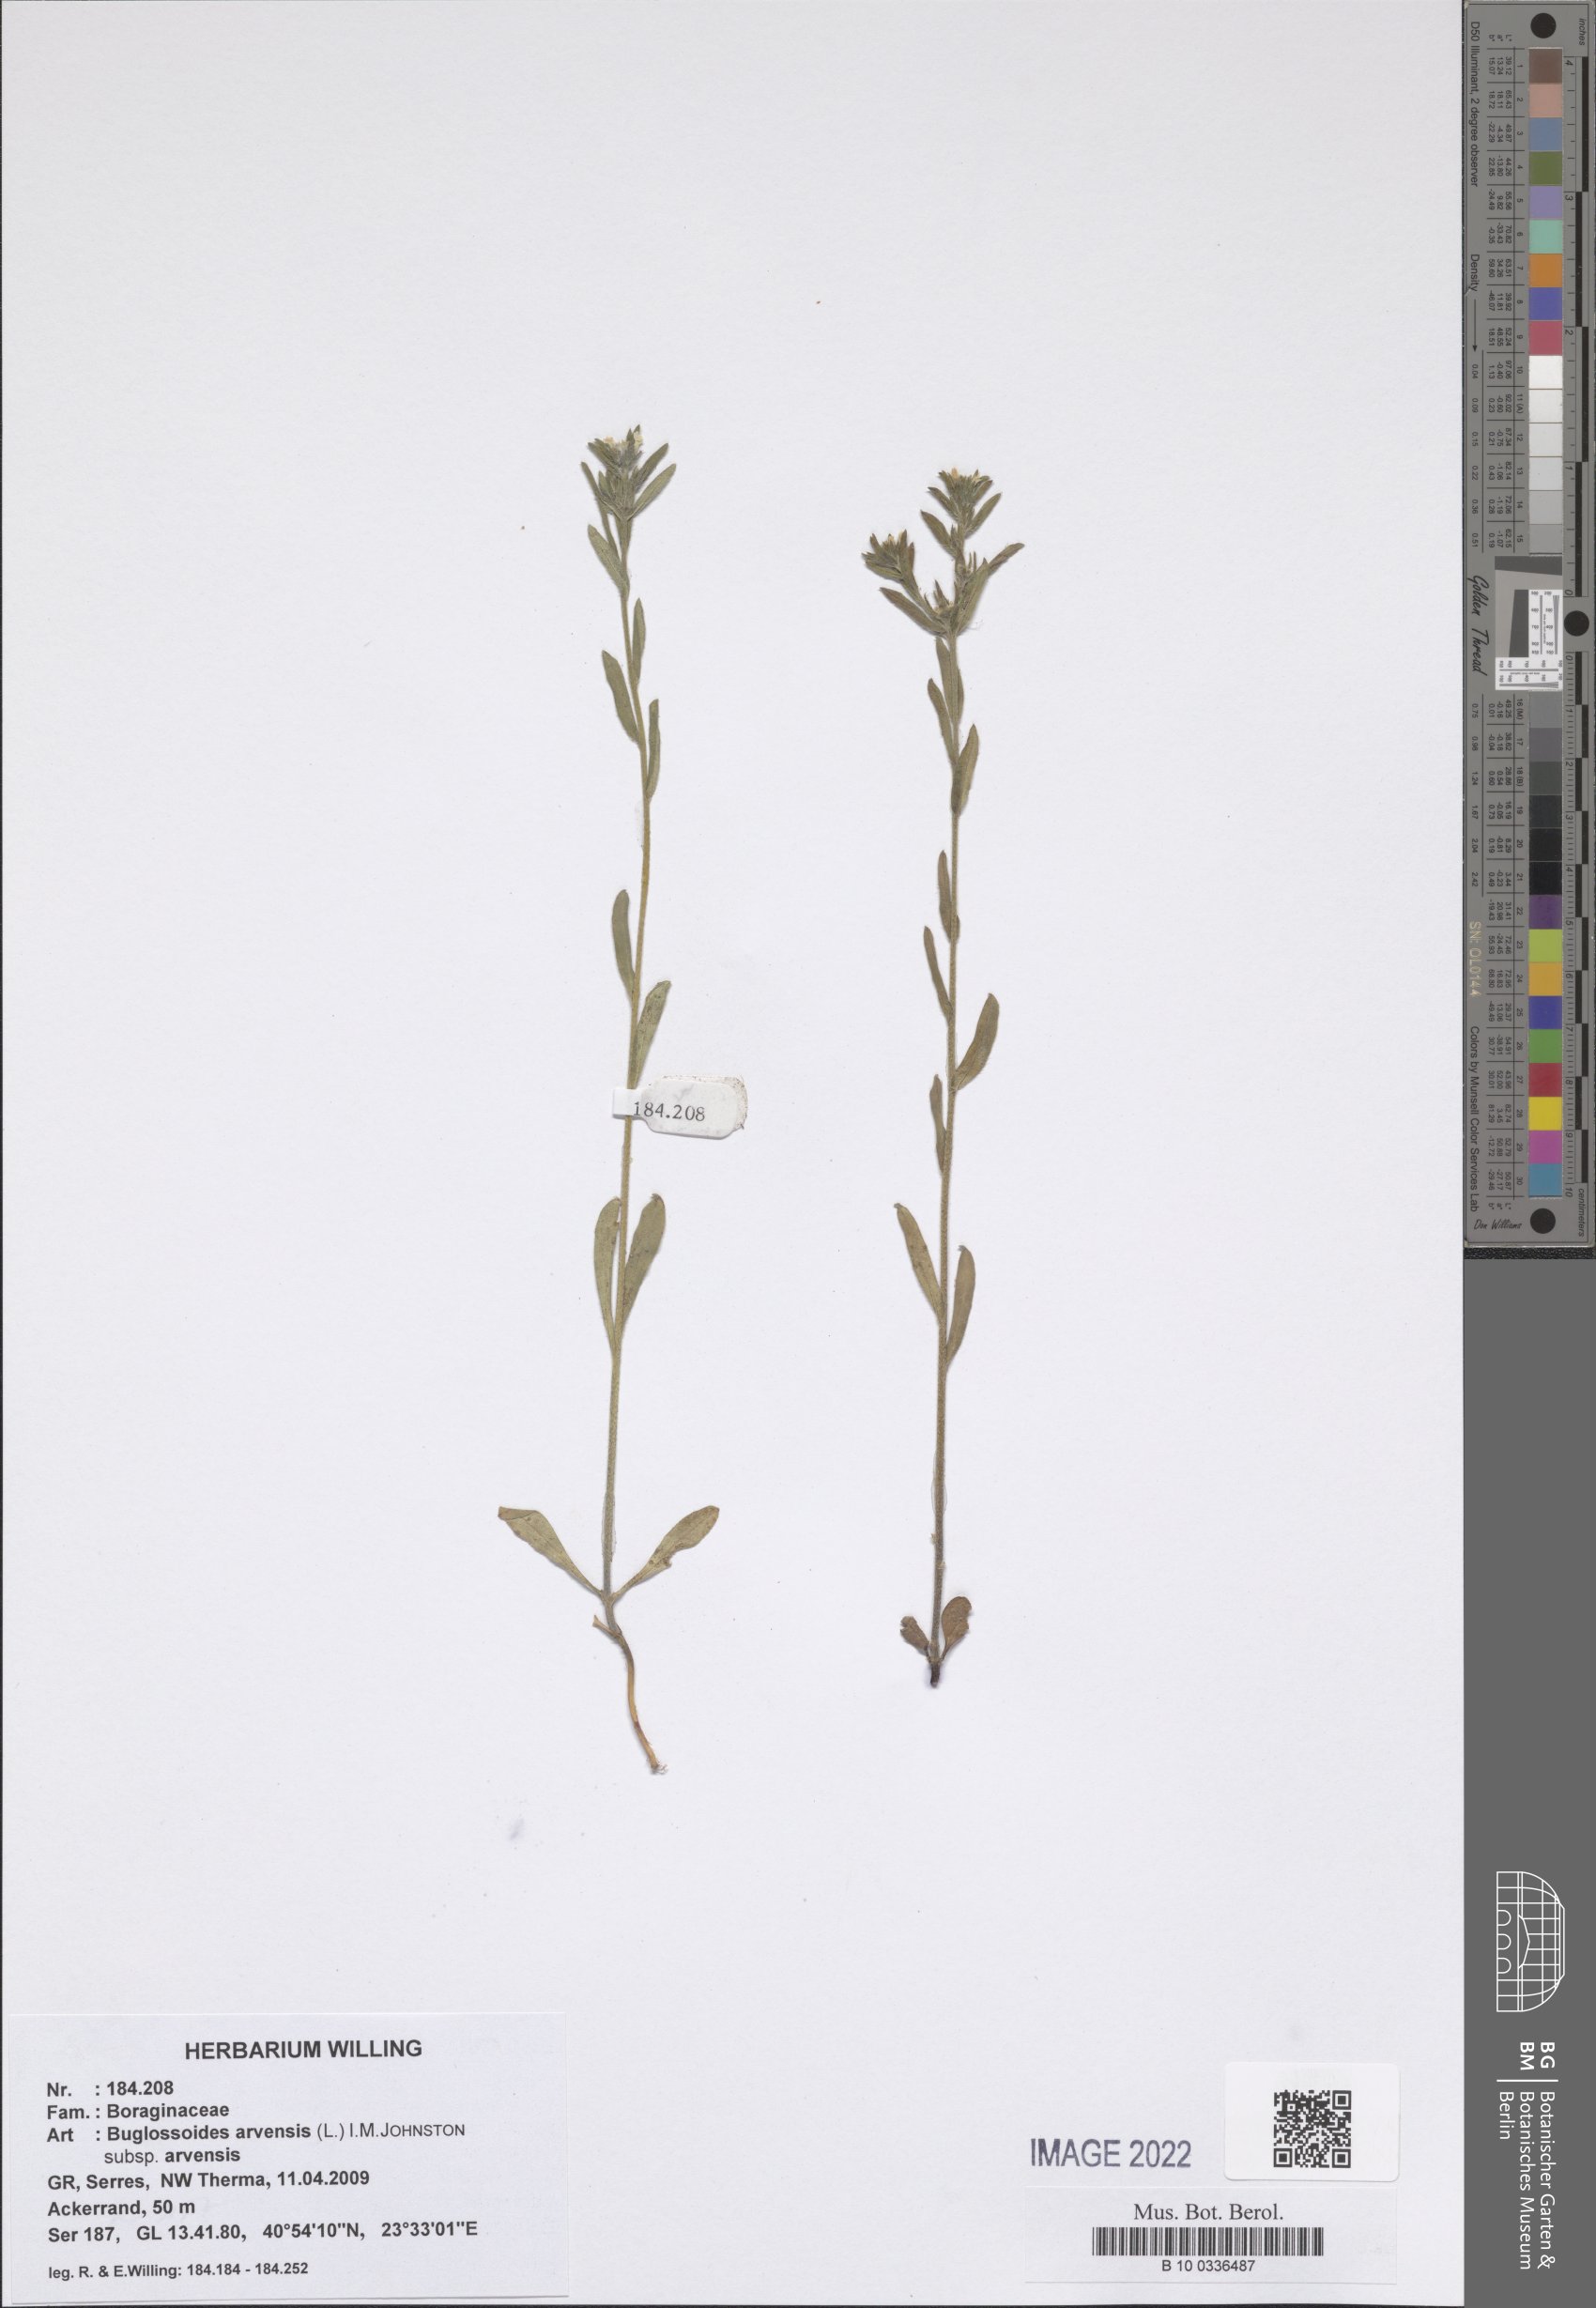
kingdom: Plantae
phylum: Tracheophyta
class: Magnoliopsida
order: Boraginales
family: Boraginaceae
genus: Buglossoides
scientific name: Buglossoides arvensis
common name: Corn gromwell
